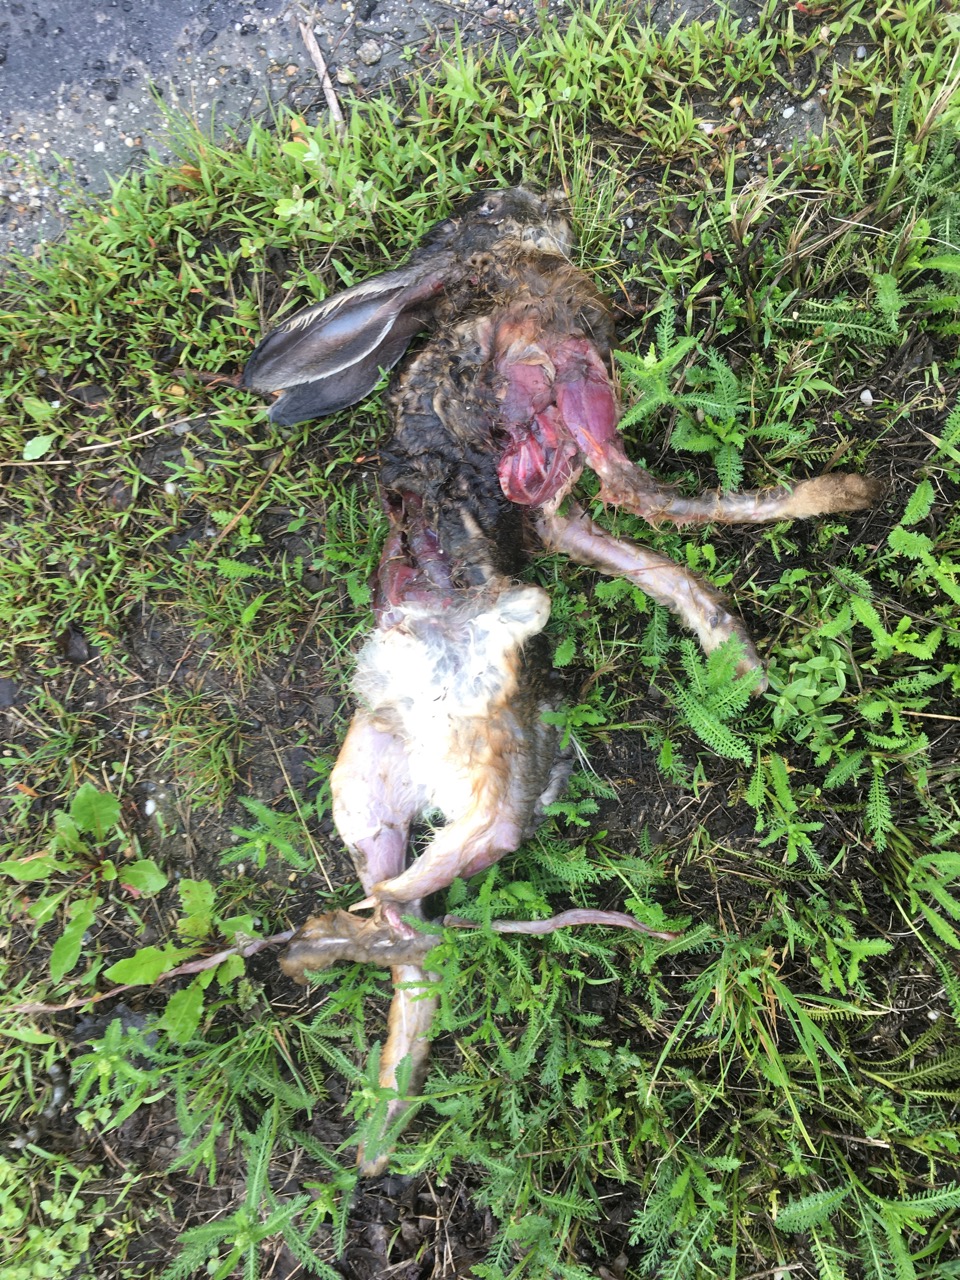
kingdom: Animalia
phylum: Chordata
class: Mammalia
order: Lagomorpha
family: Leporidae
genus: Lepus
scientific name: Lepus europaeus
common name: European hare
